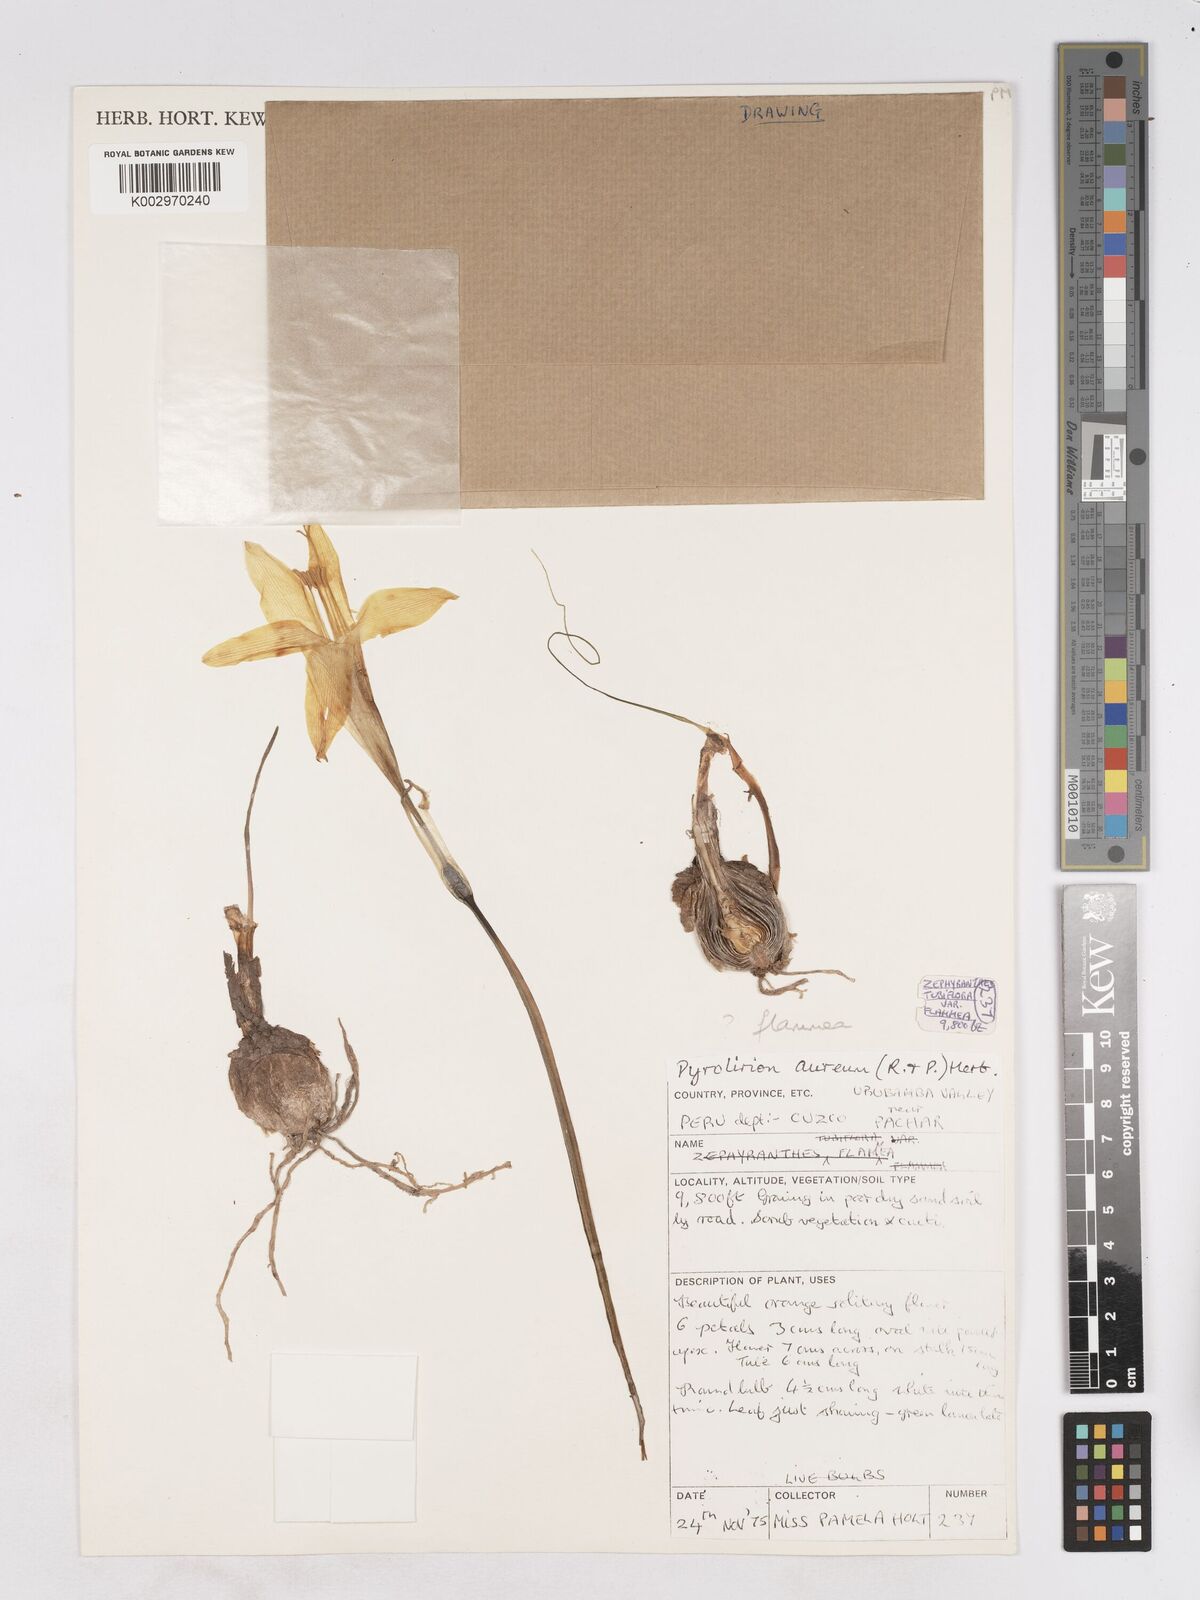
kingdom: Plantae
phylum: Tracheophyta
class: Liliopsida
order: Asparagales
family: Amaryllidaceae
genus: Pyrolirion
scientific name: Pyrolirion arvense
